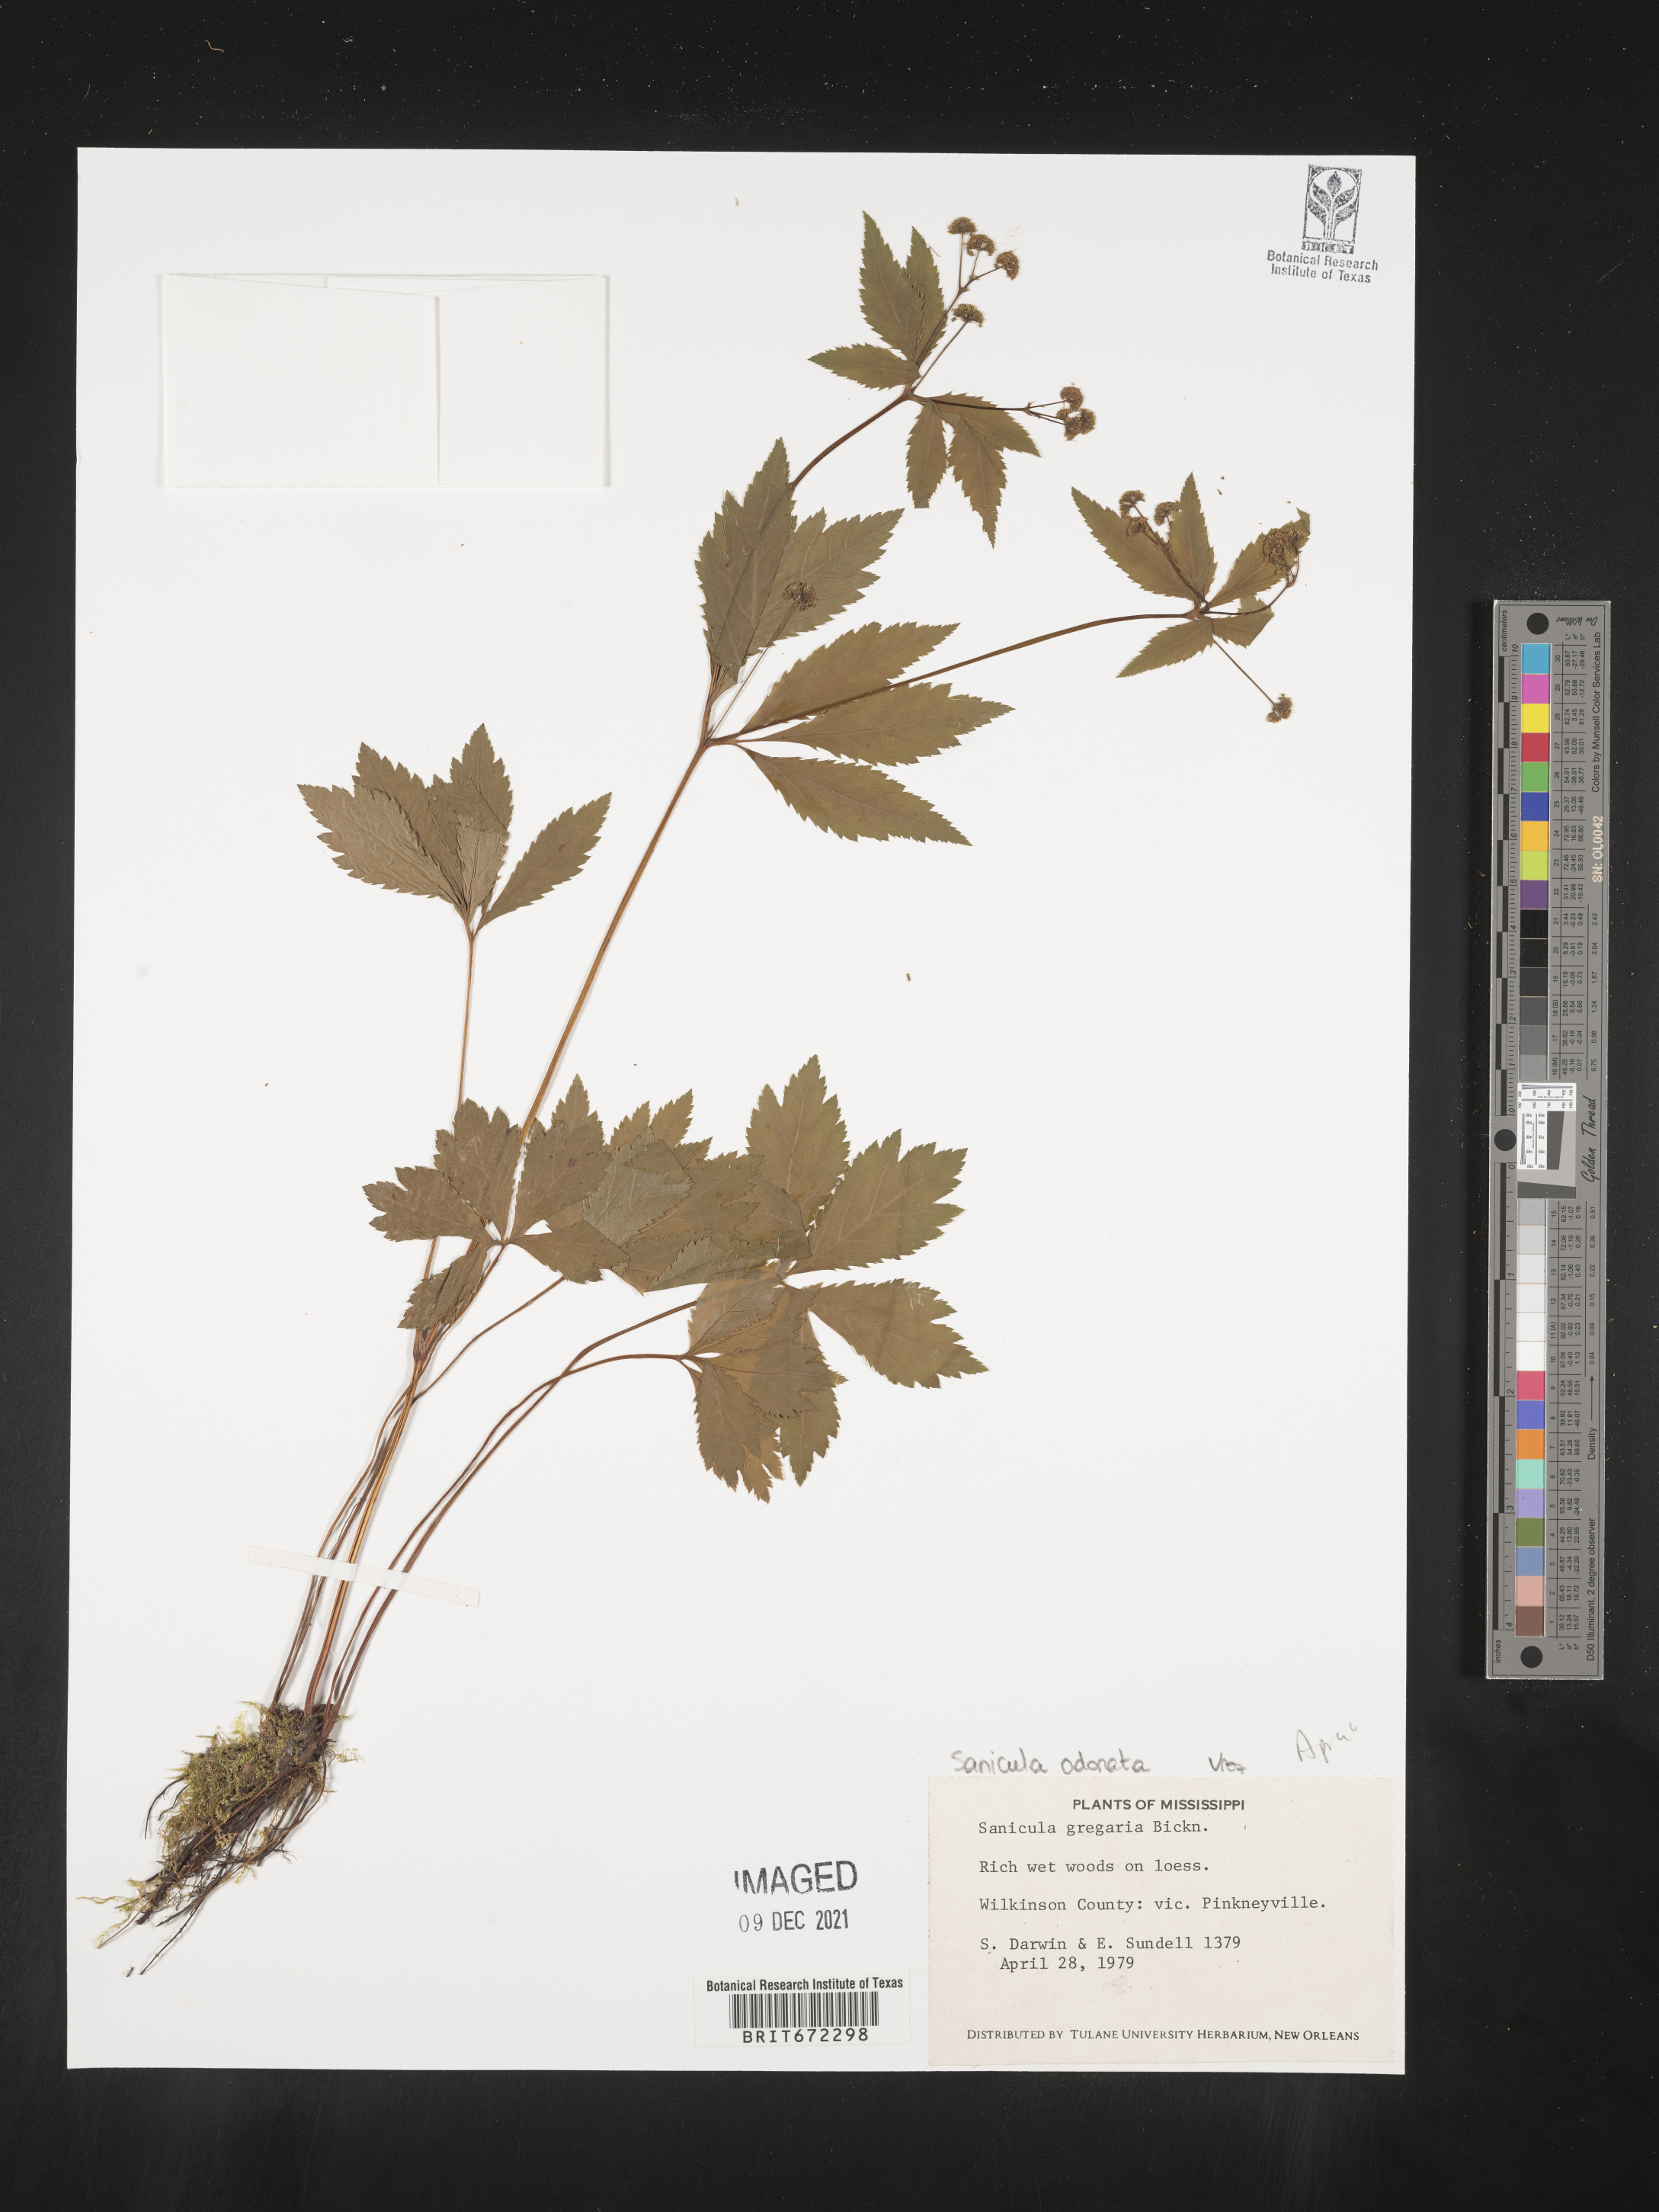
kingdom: Plantae
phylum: Tracheophyta
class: Magnoliopsida
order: Apiales
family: Apiaceae
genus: Sanicula
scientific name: Sanicula
